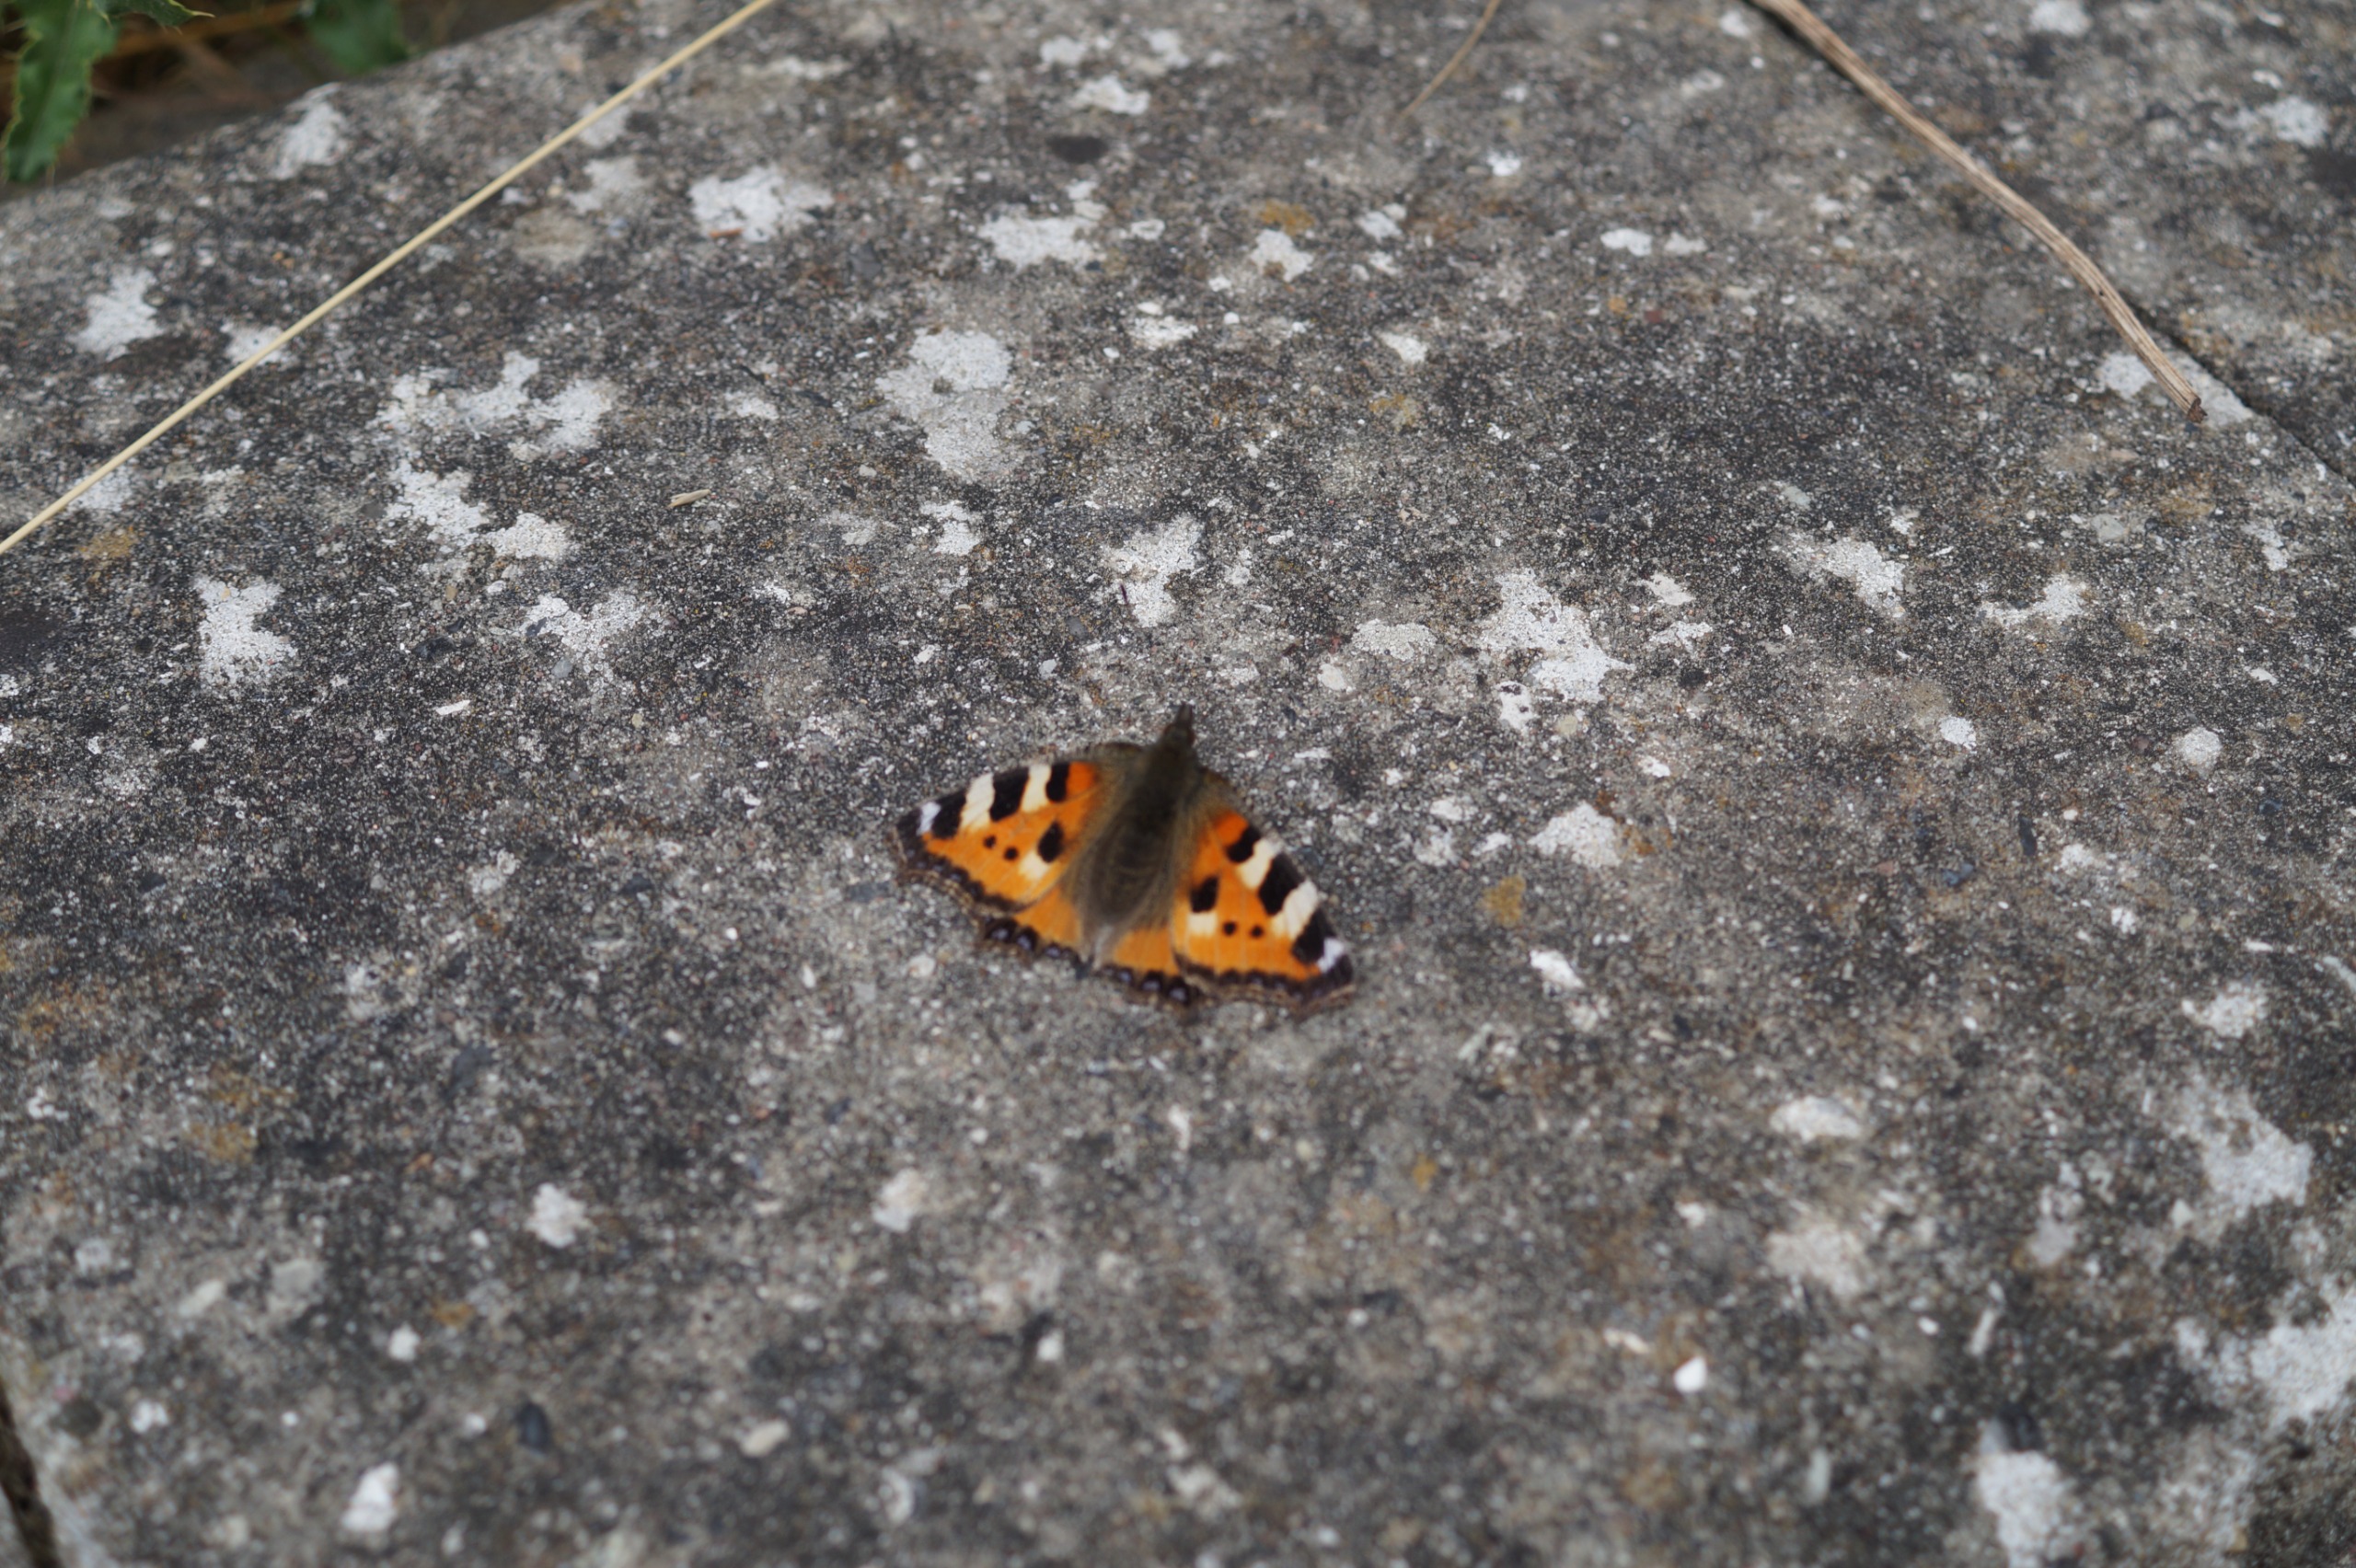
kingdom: Animalia
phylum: Arthropoda
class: Insecta
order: Lepidoptera
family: Nymphalidae
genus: Aglais
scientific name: Aglais urticae
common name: Nældens takvinge
